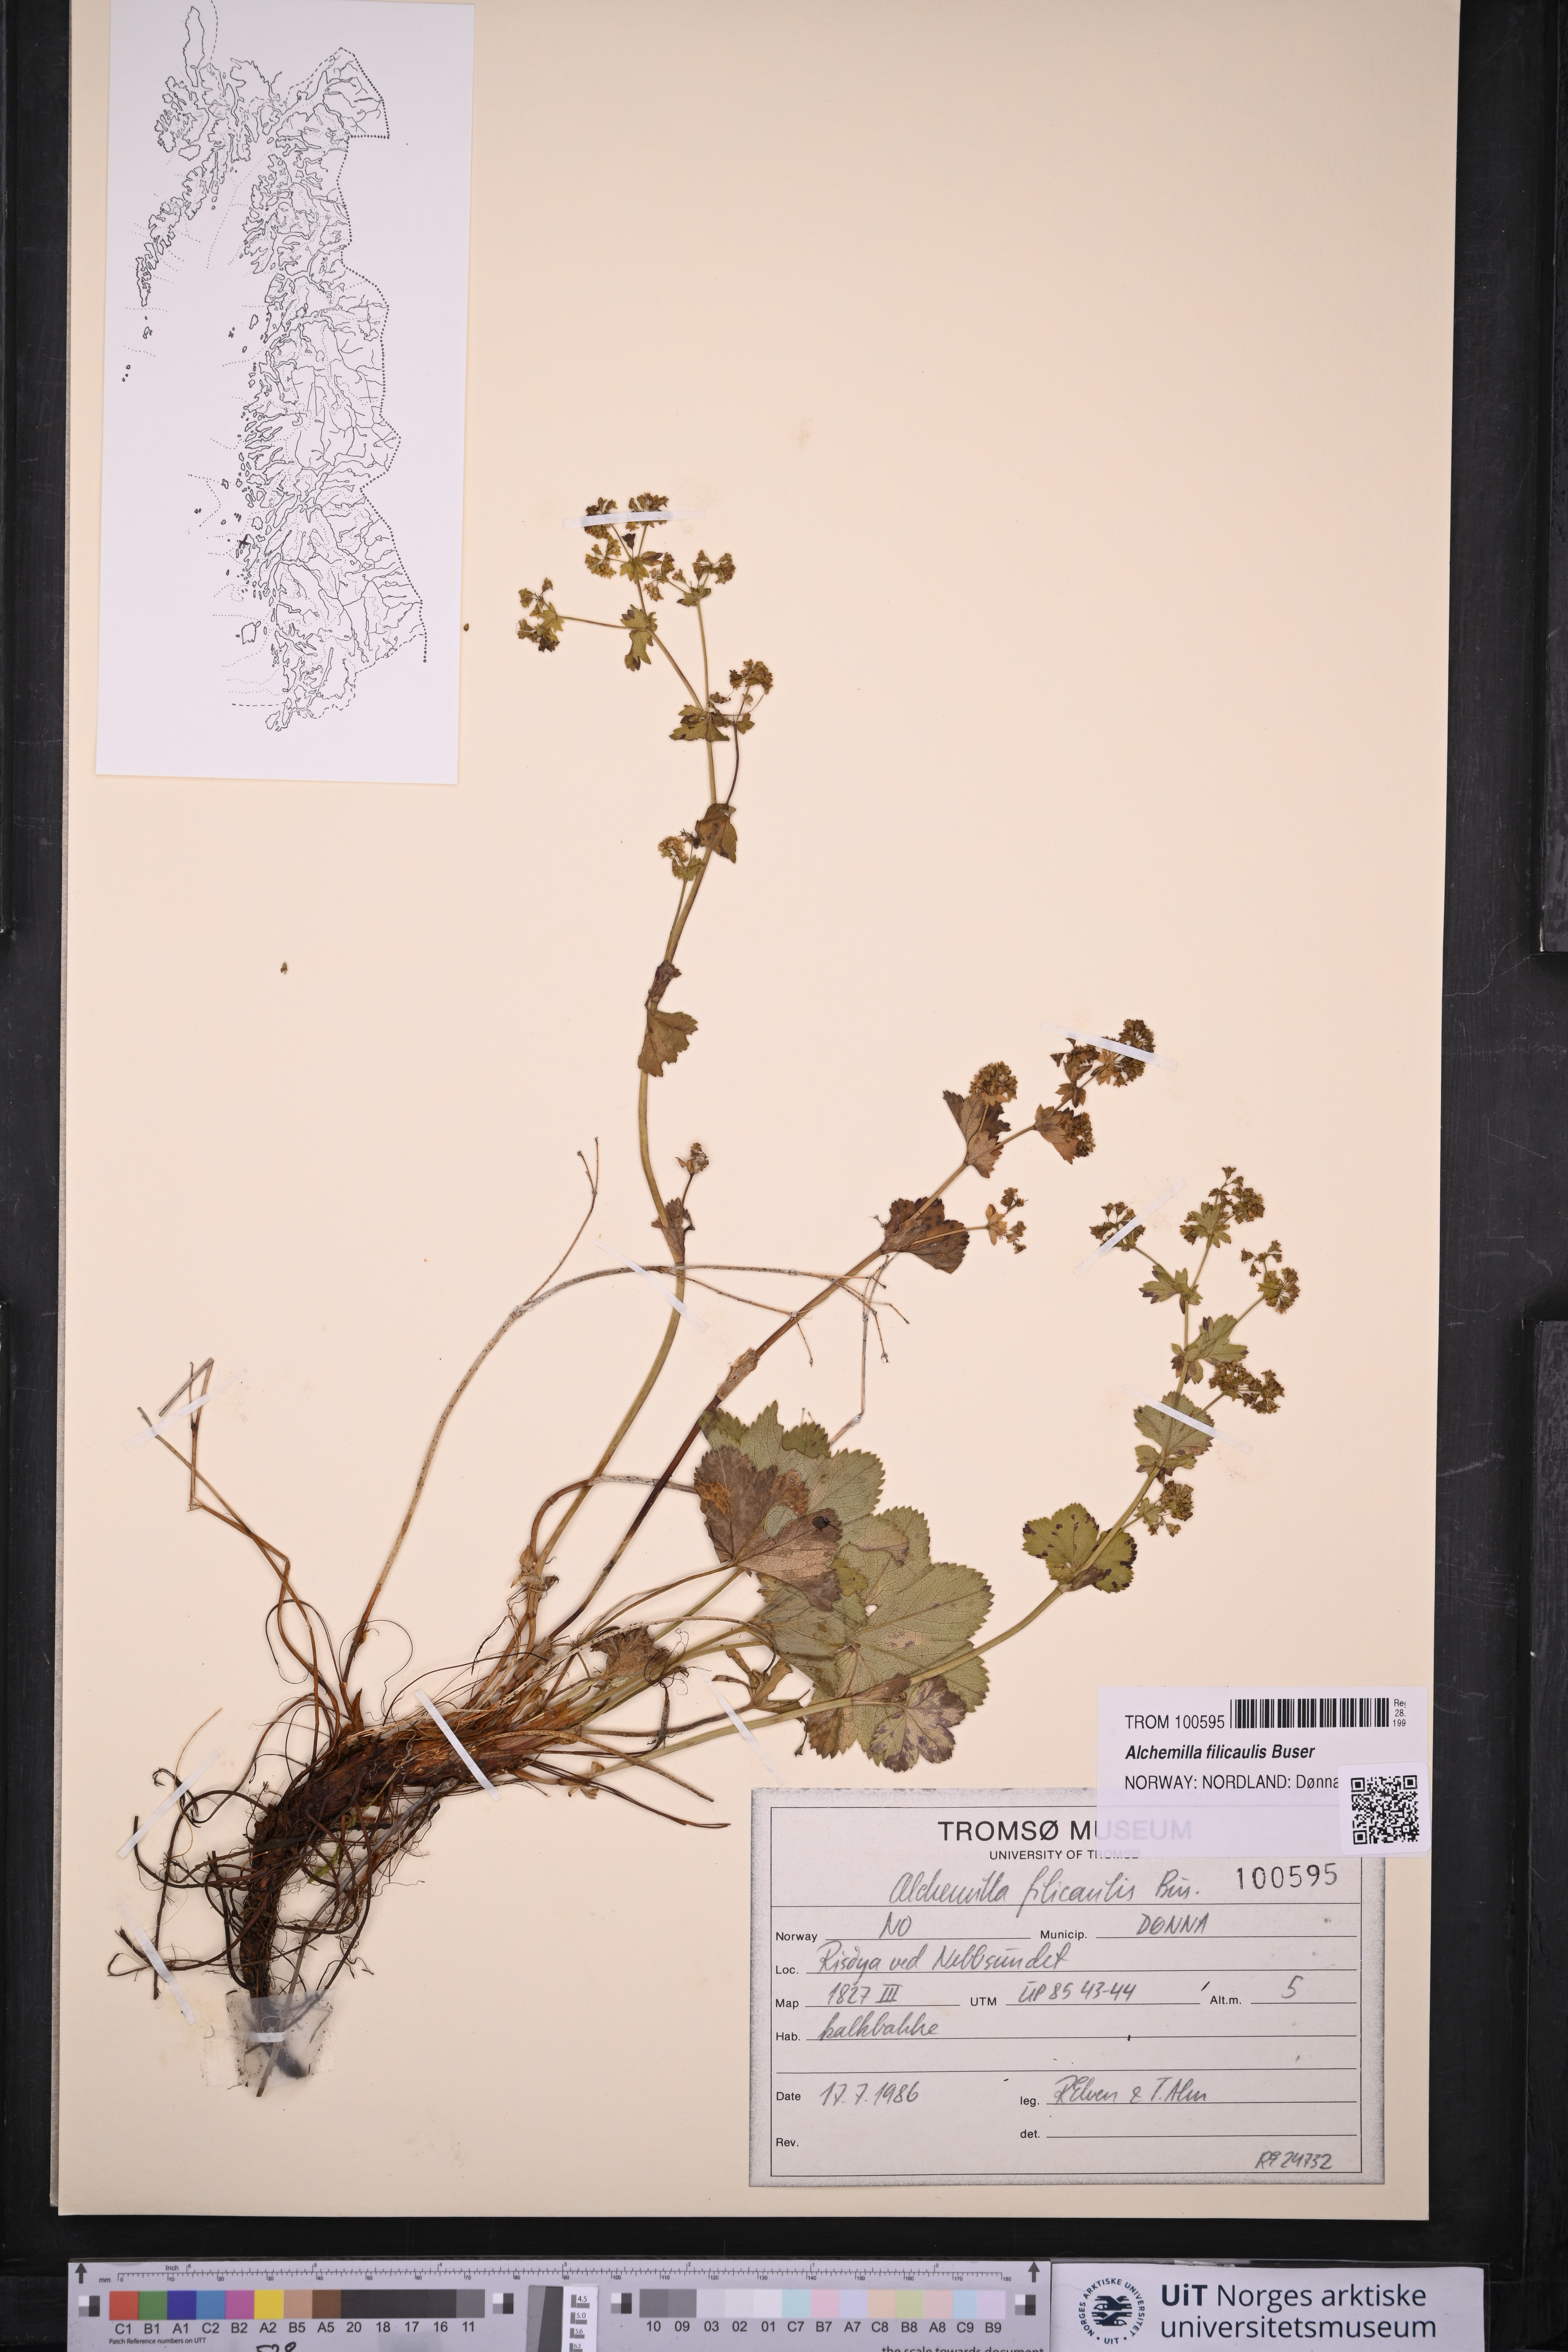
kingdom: Plantae
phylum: Tracheophyta
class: Magnoliopsida
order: Rosales
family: Rosaceae
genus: Alchemilla
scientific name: Alchemilla filicaulis
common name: Hairy lady's-mantle
